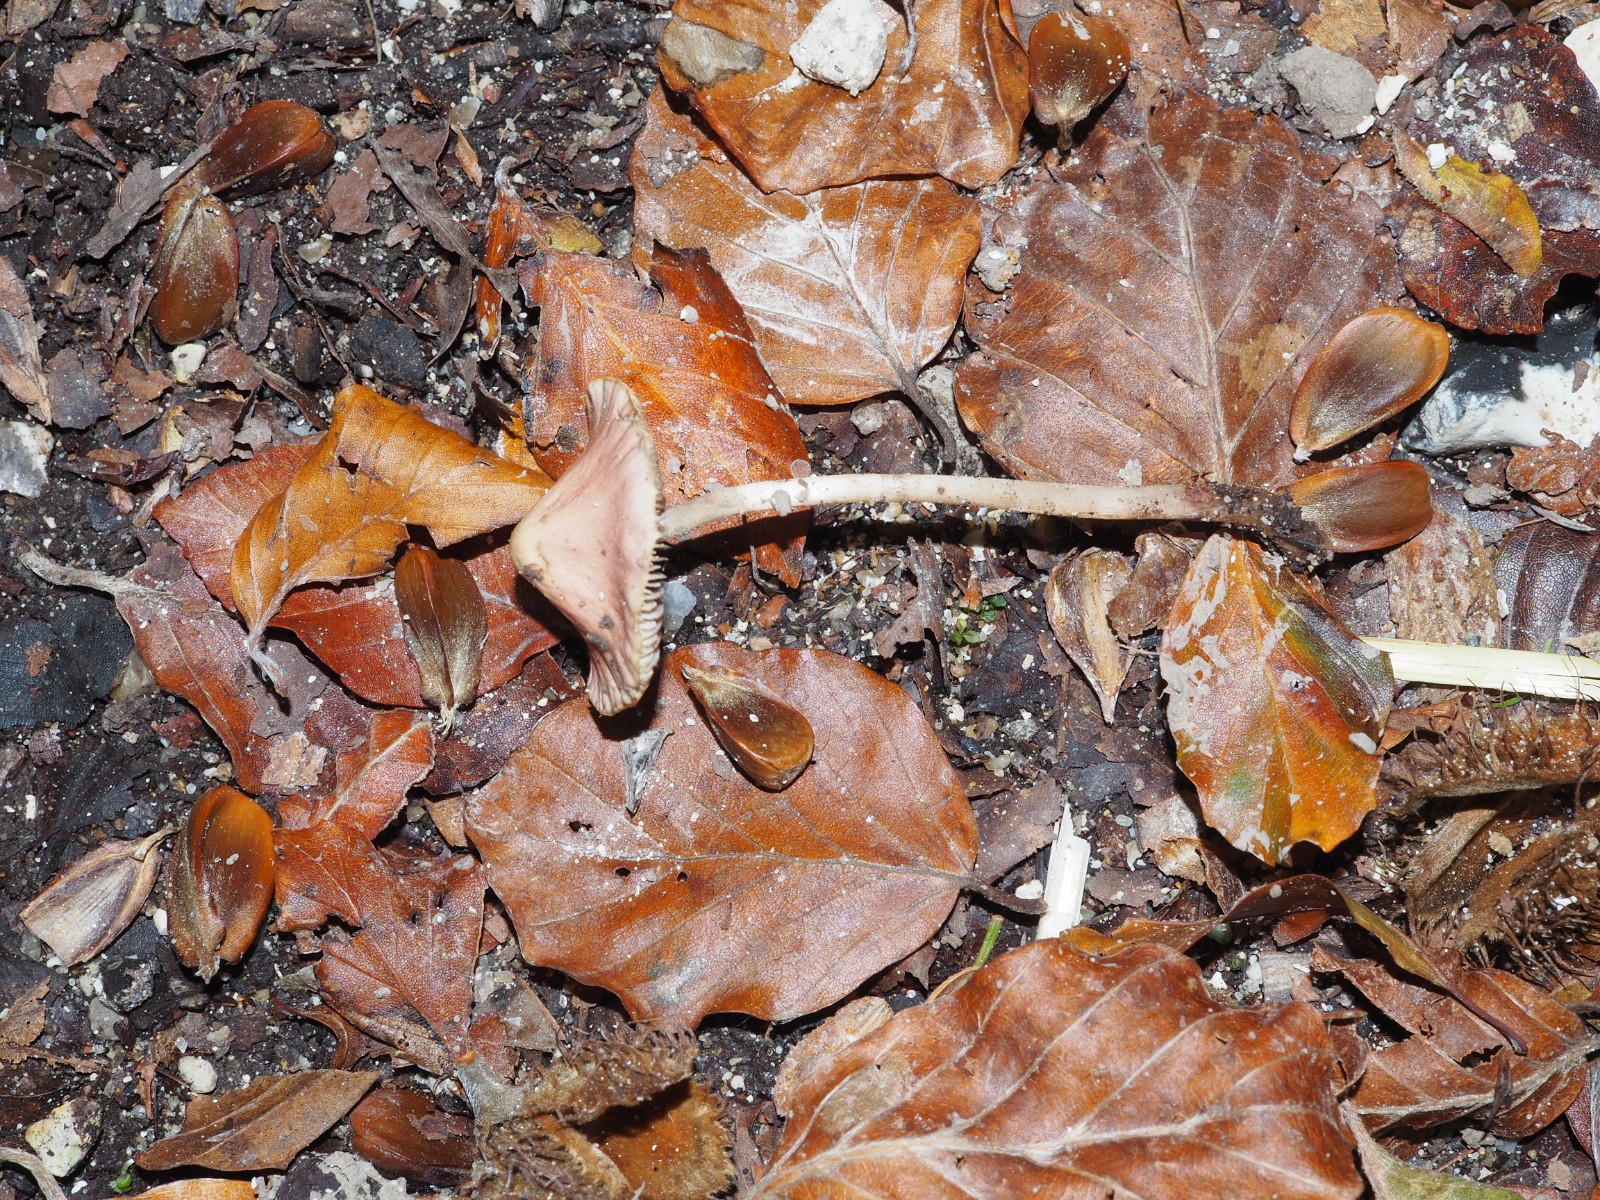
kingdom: Fungi
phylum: Basidiomycota
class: Agaricomycetes
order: Agaricales
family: Psathyrellaceae
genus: Psathyrella
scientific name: Psathyrella
